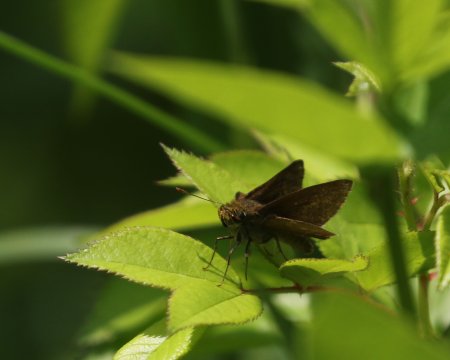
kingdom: Animalia
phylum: Arthropoda
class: Insecta
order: Lepidoptera
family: Hesperiidae
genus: Euphyes
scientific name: Euphyes vestris
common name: Dun Skipper
